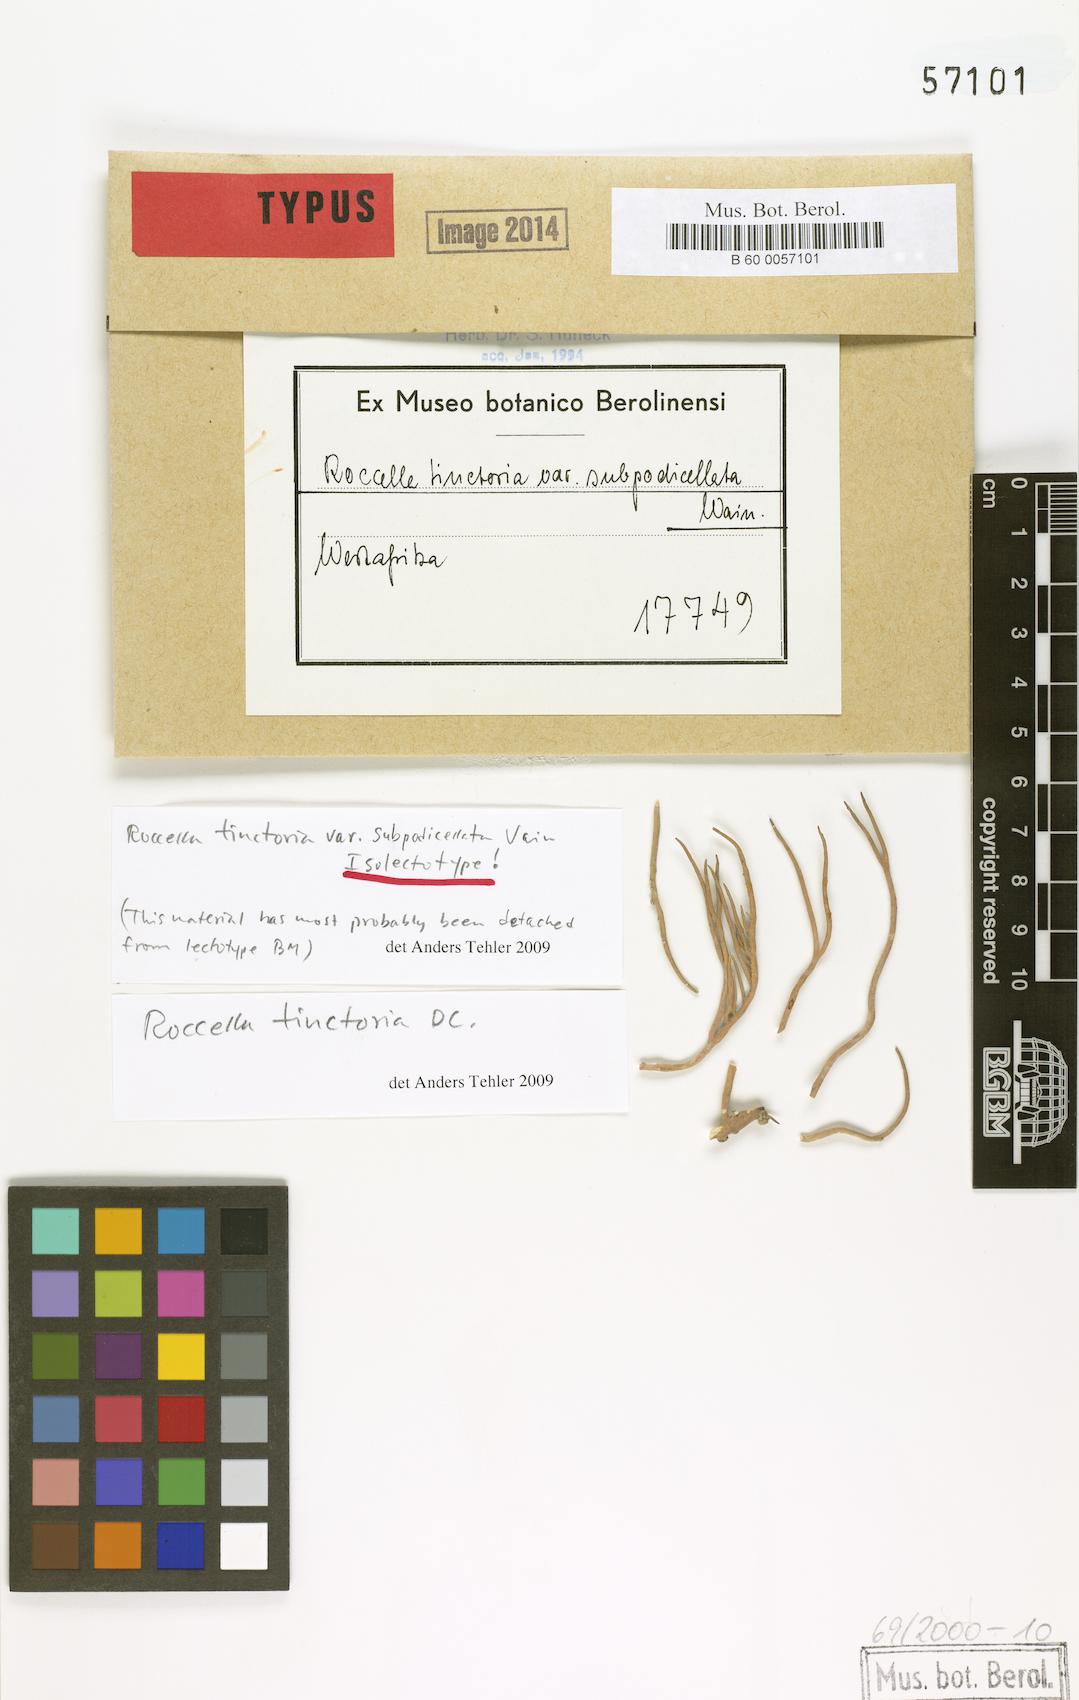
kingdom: Fungi
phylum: Ascomycota
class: Arthoniomycetes
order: Arthoniales
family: Roccellaceae
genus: Roccella
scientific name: Roccella phycopsis
